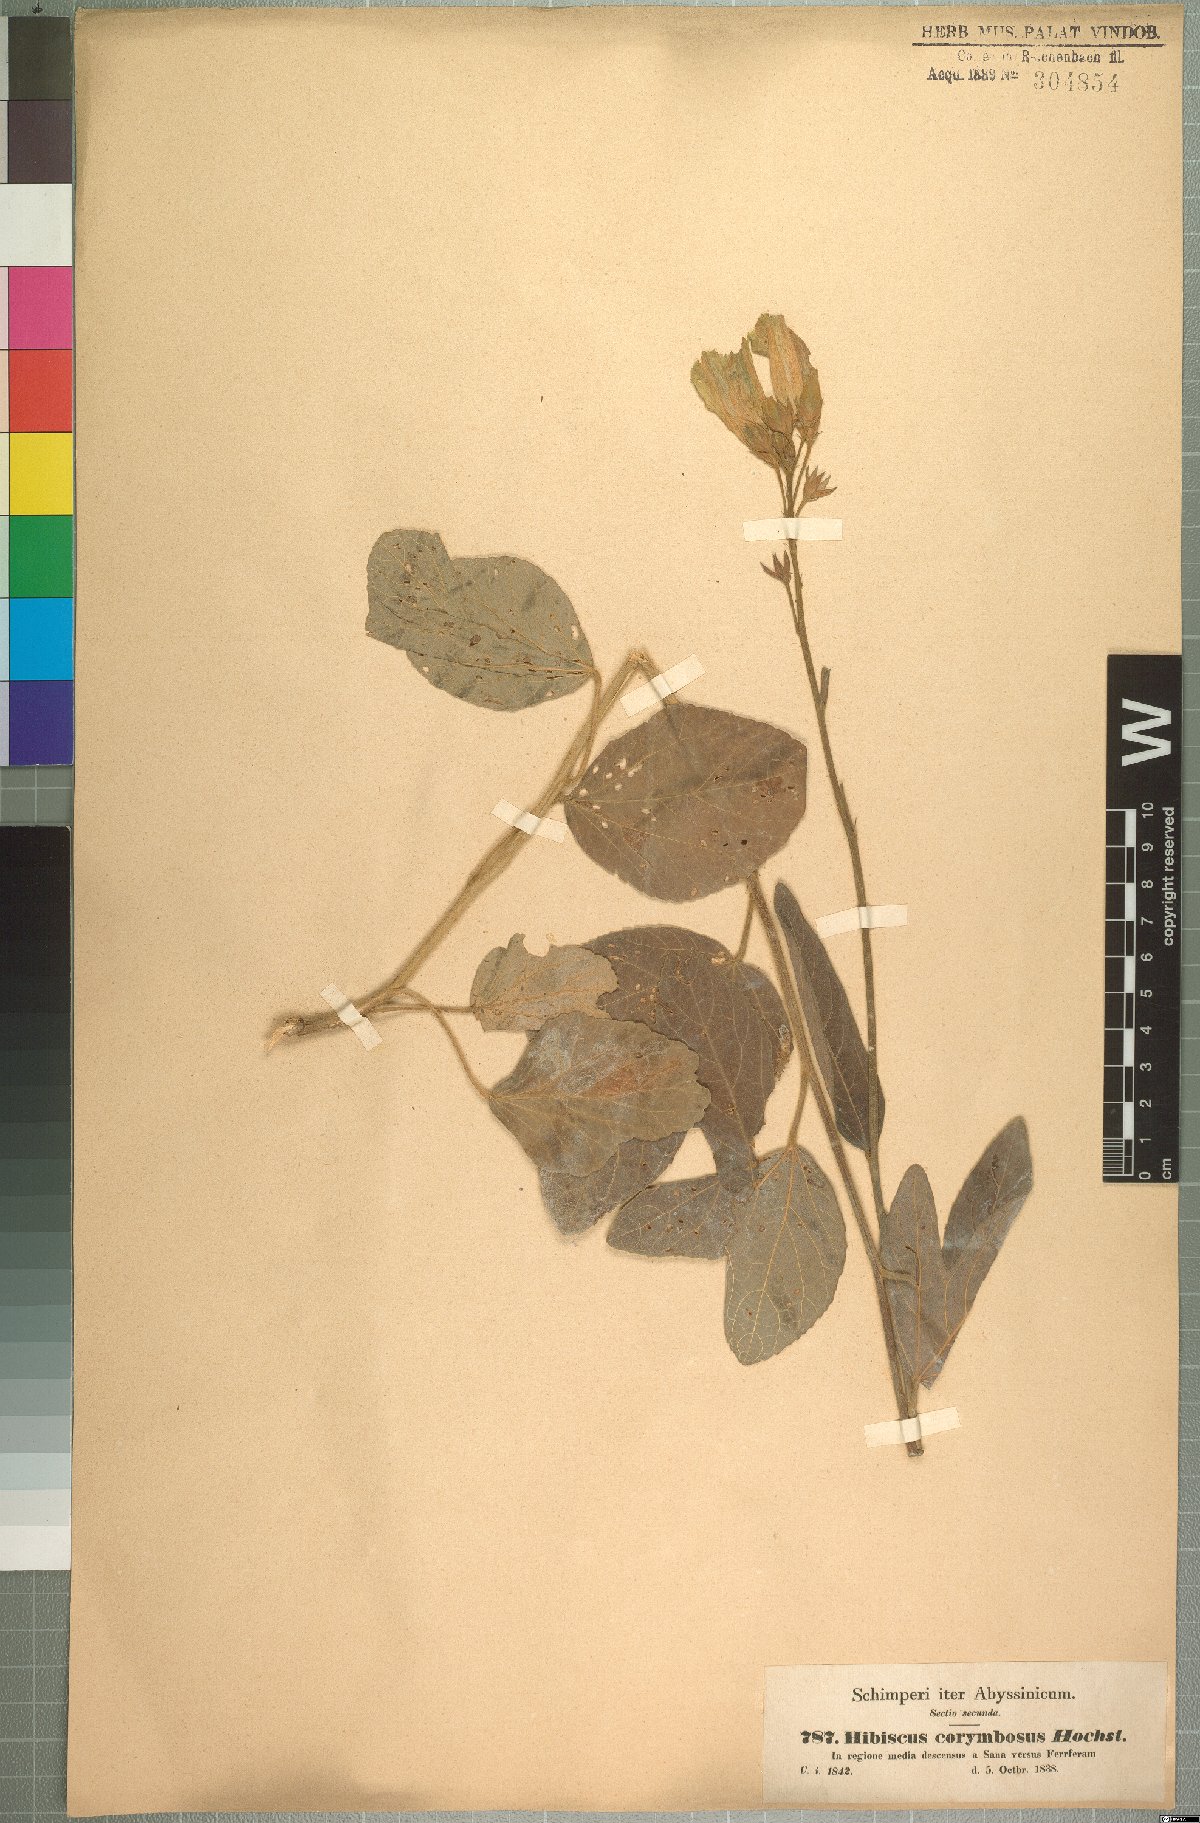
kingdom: Plantae
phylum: Tracheophyta
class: Magnoliopsida
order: Malvales
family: Malvaceae
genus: Hibiscus
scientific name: Hibiscus corymbosus
